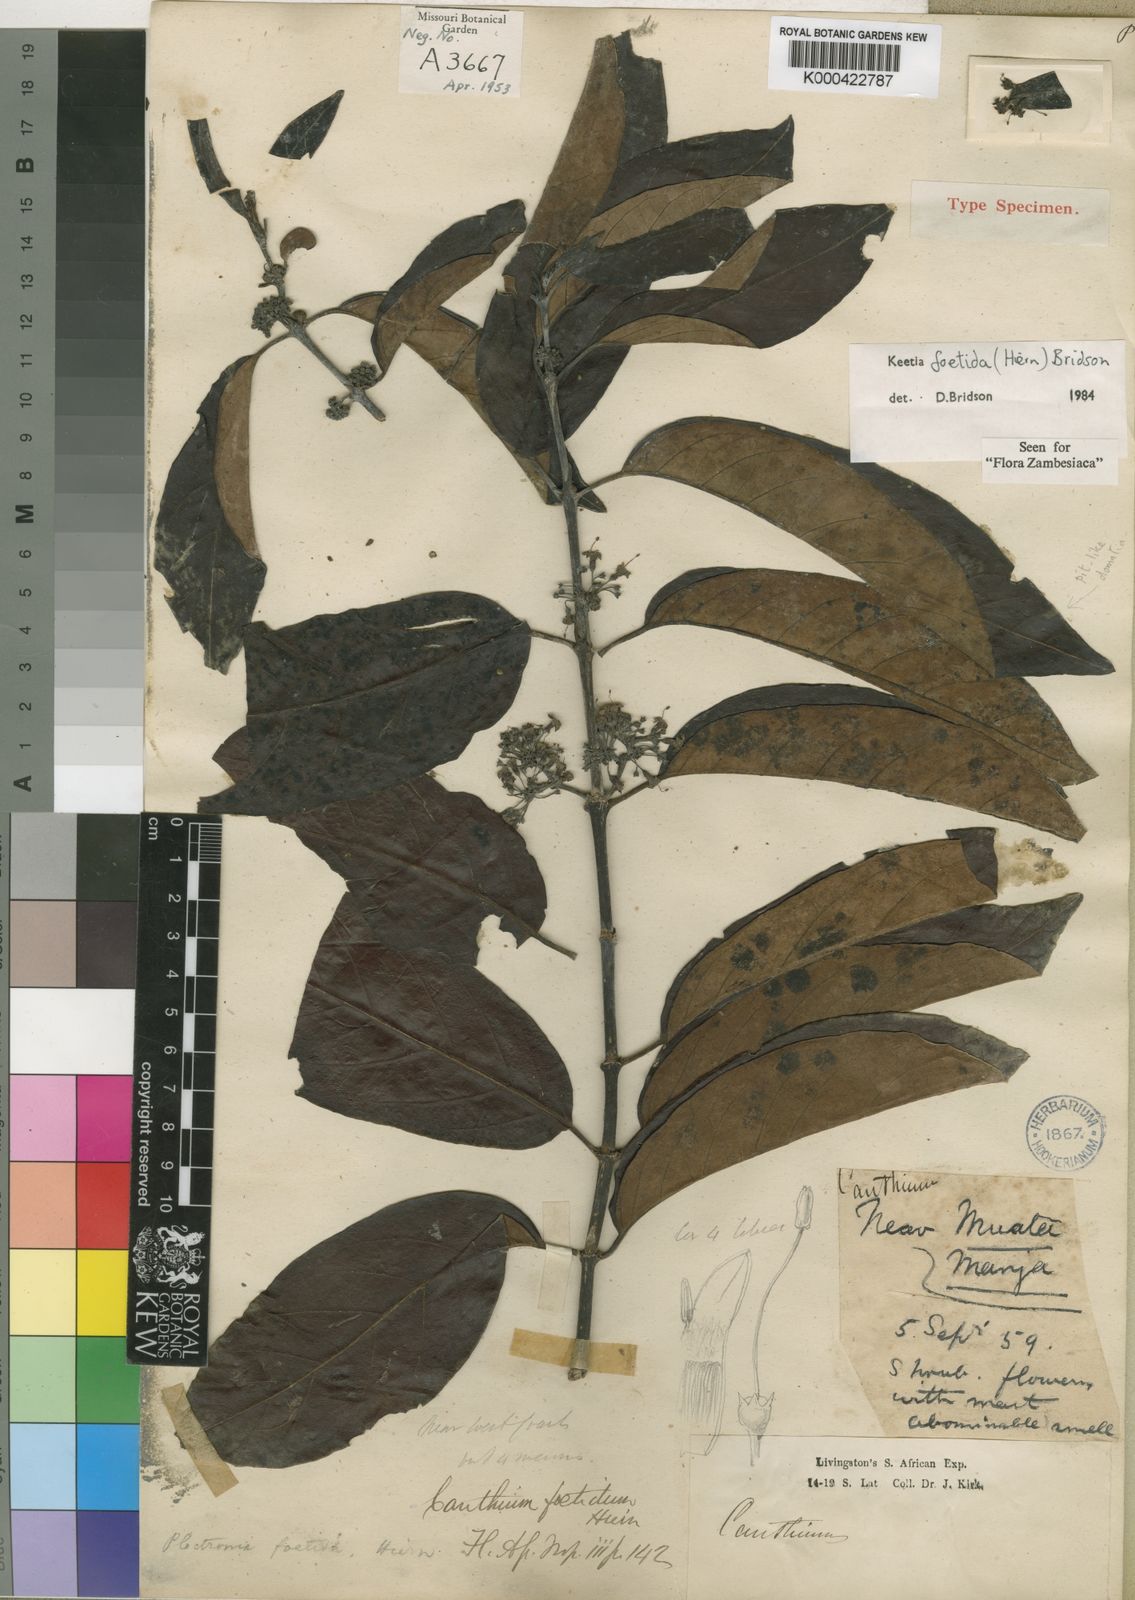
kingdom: Plantae
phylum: Tracheophyta
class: Magnoliopsida
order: Gentianales
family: Rubiaceae
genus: Keetia
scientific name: Keetia foetida
